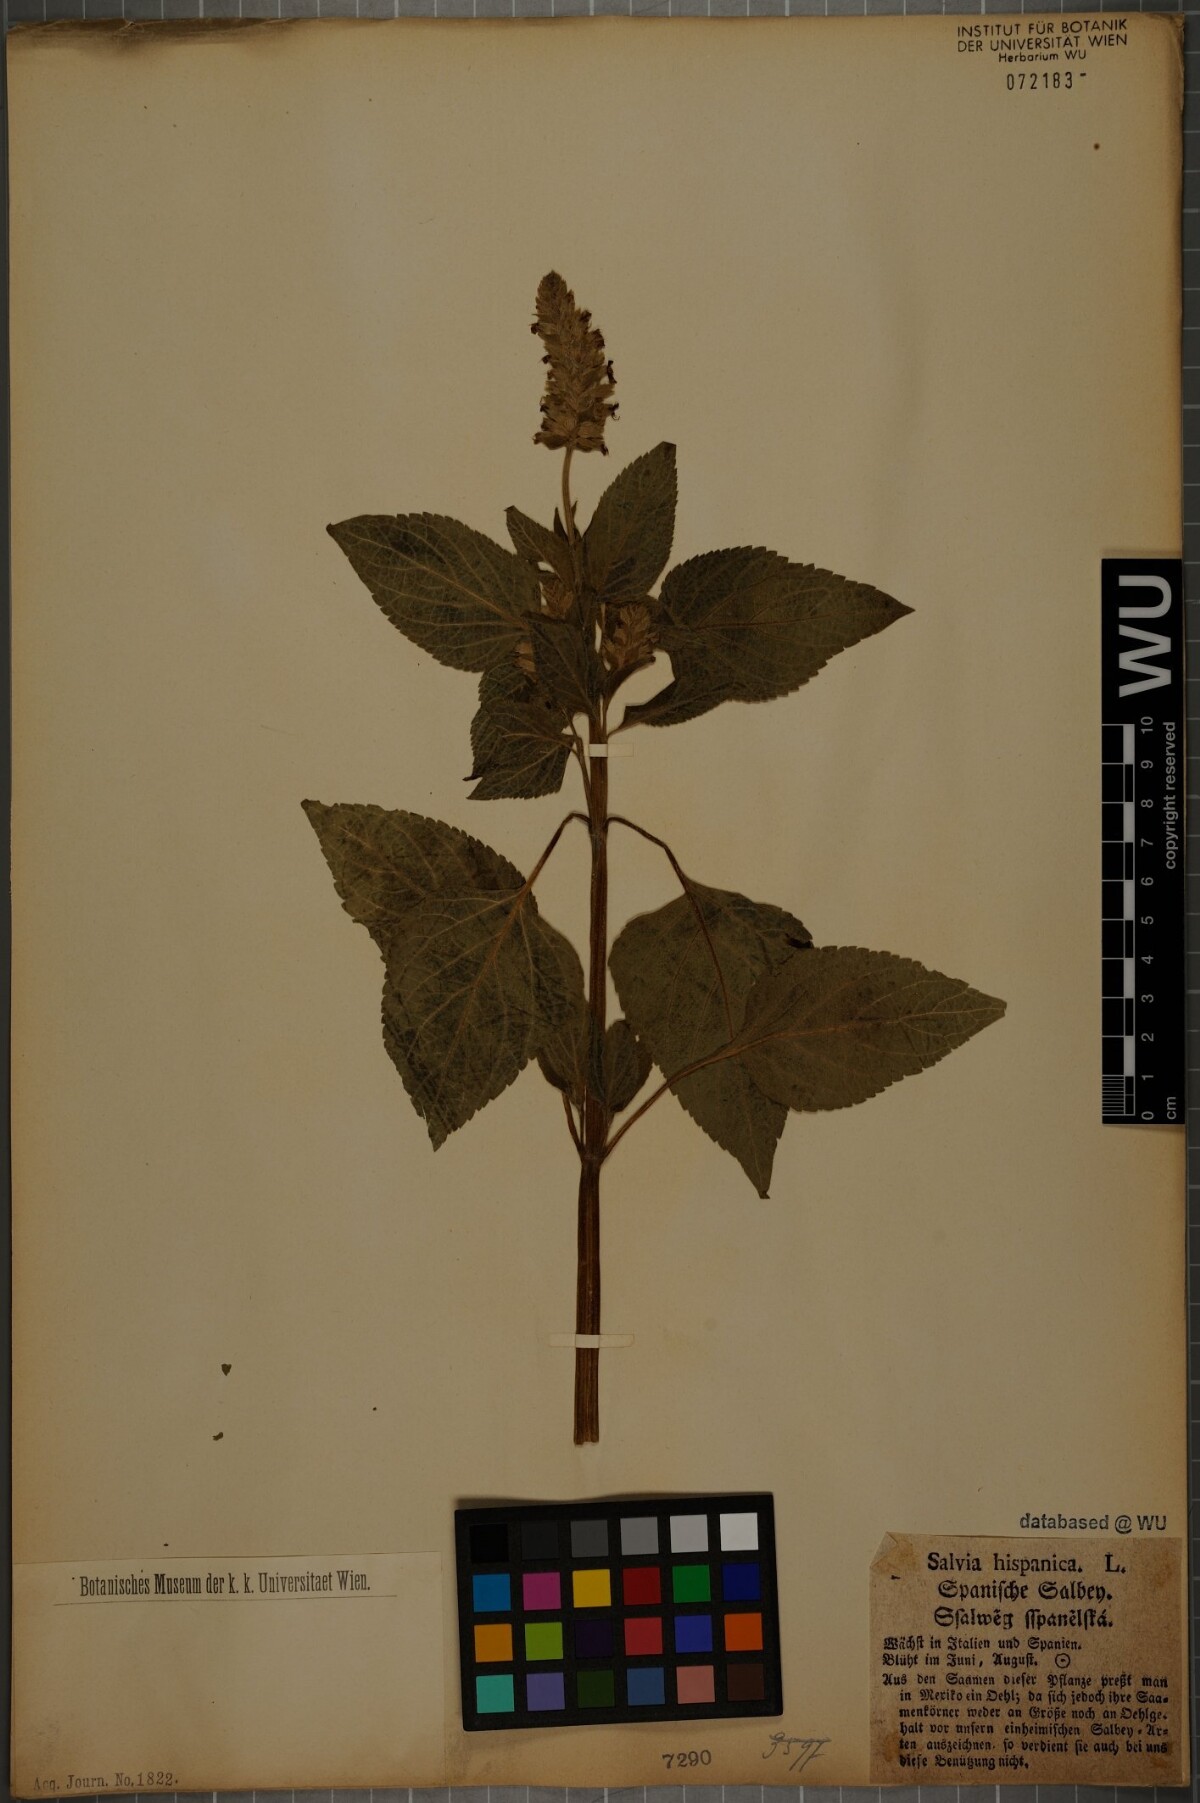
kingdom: Plantae
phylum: Tracheophyta
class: Magnoliopsida
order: Lamiales
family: Lamiaceae
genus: Salvia
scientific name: Salvia hispanica
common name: Chia
